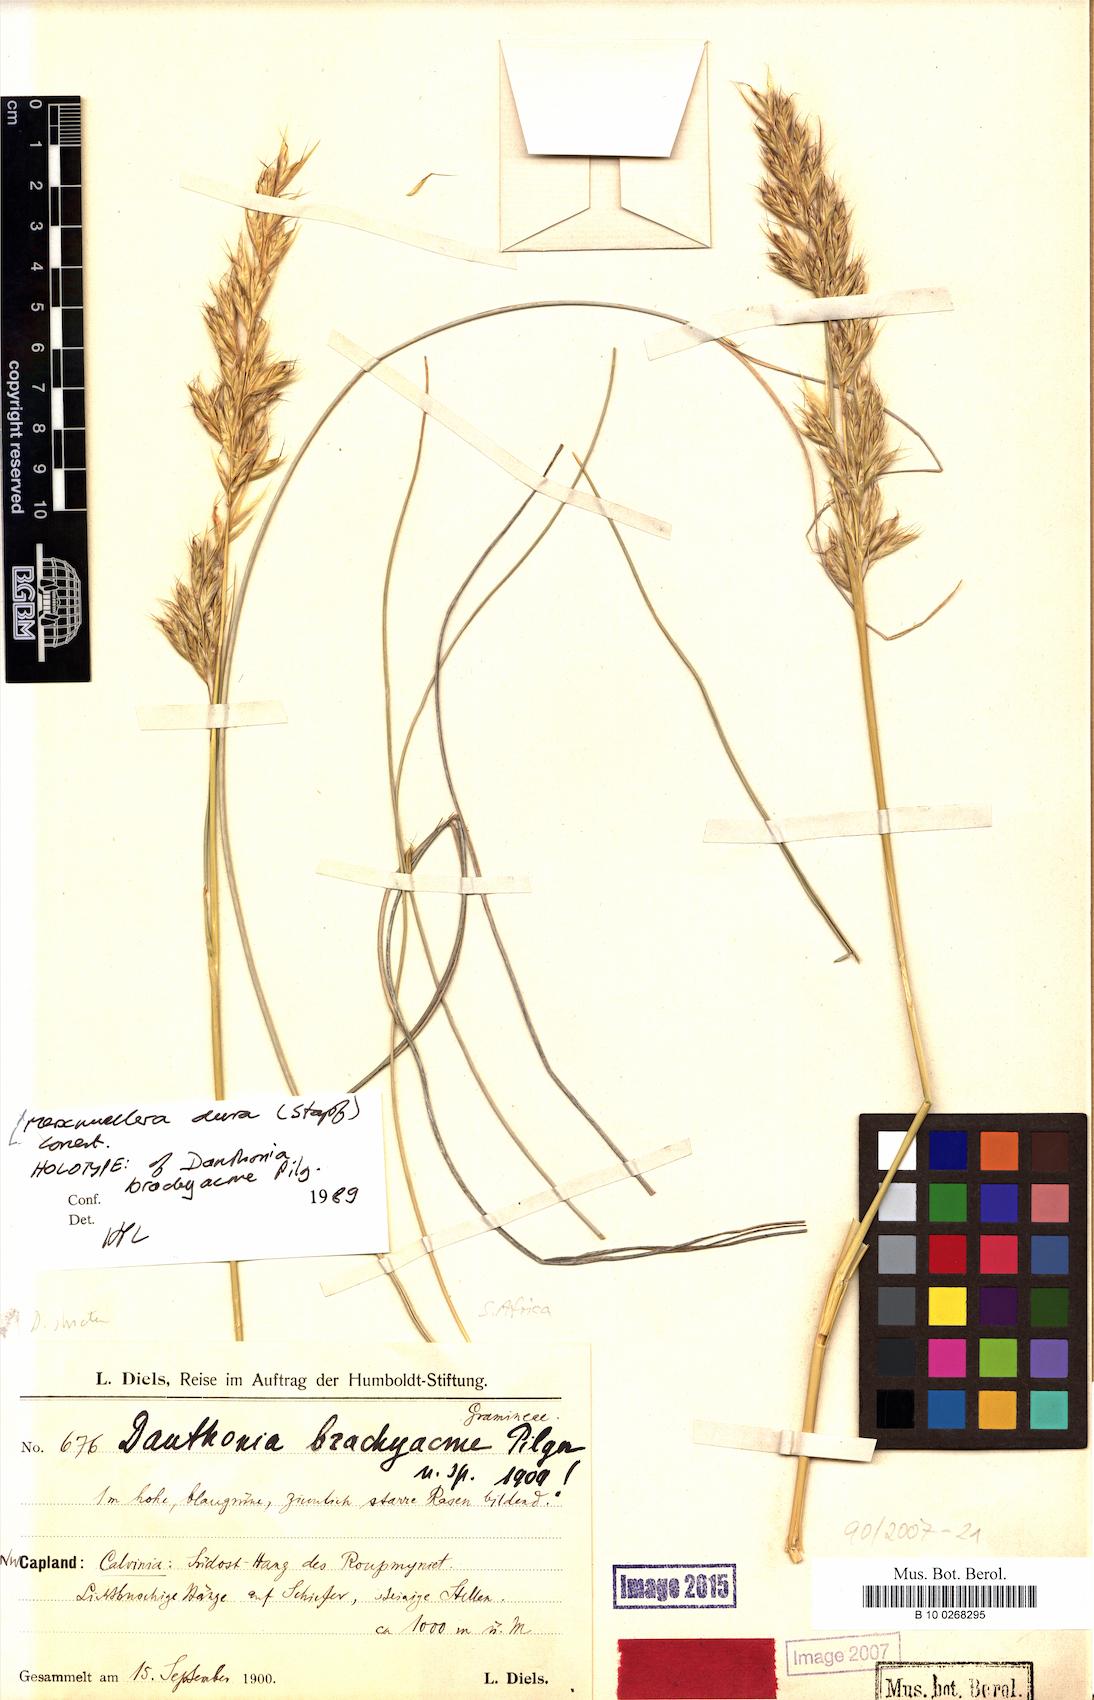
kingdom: Plantae
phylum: Tracheophyta
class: Liliopsida
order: Poales
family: Poaceae
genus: Tenaxia
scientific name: Tenaxia dura
